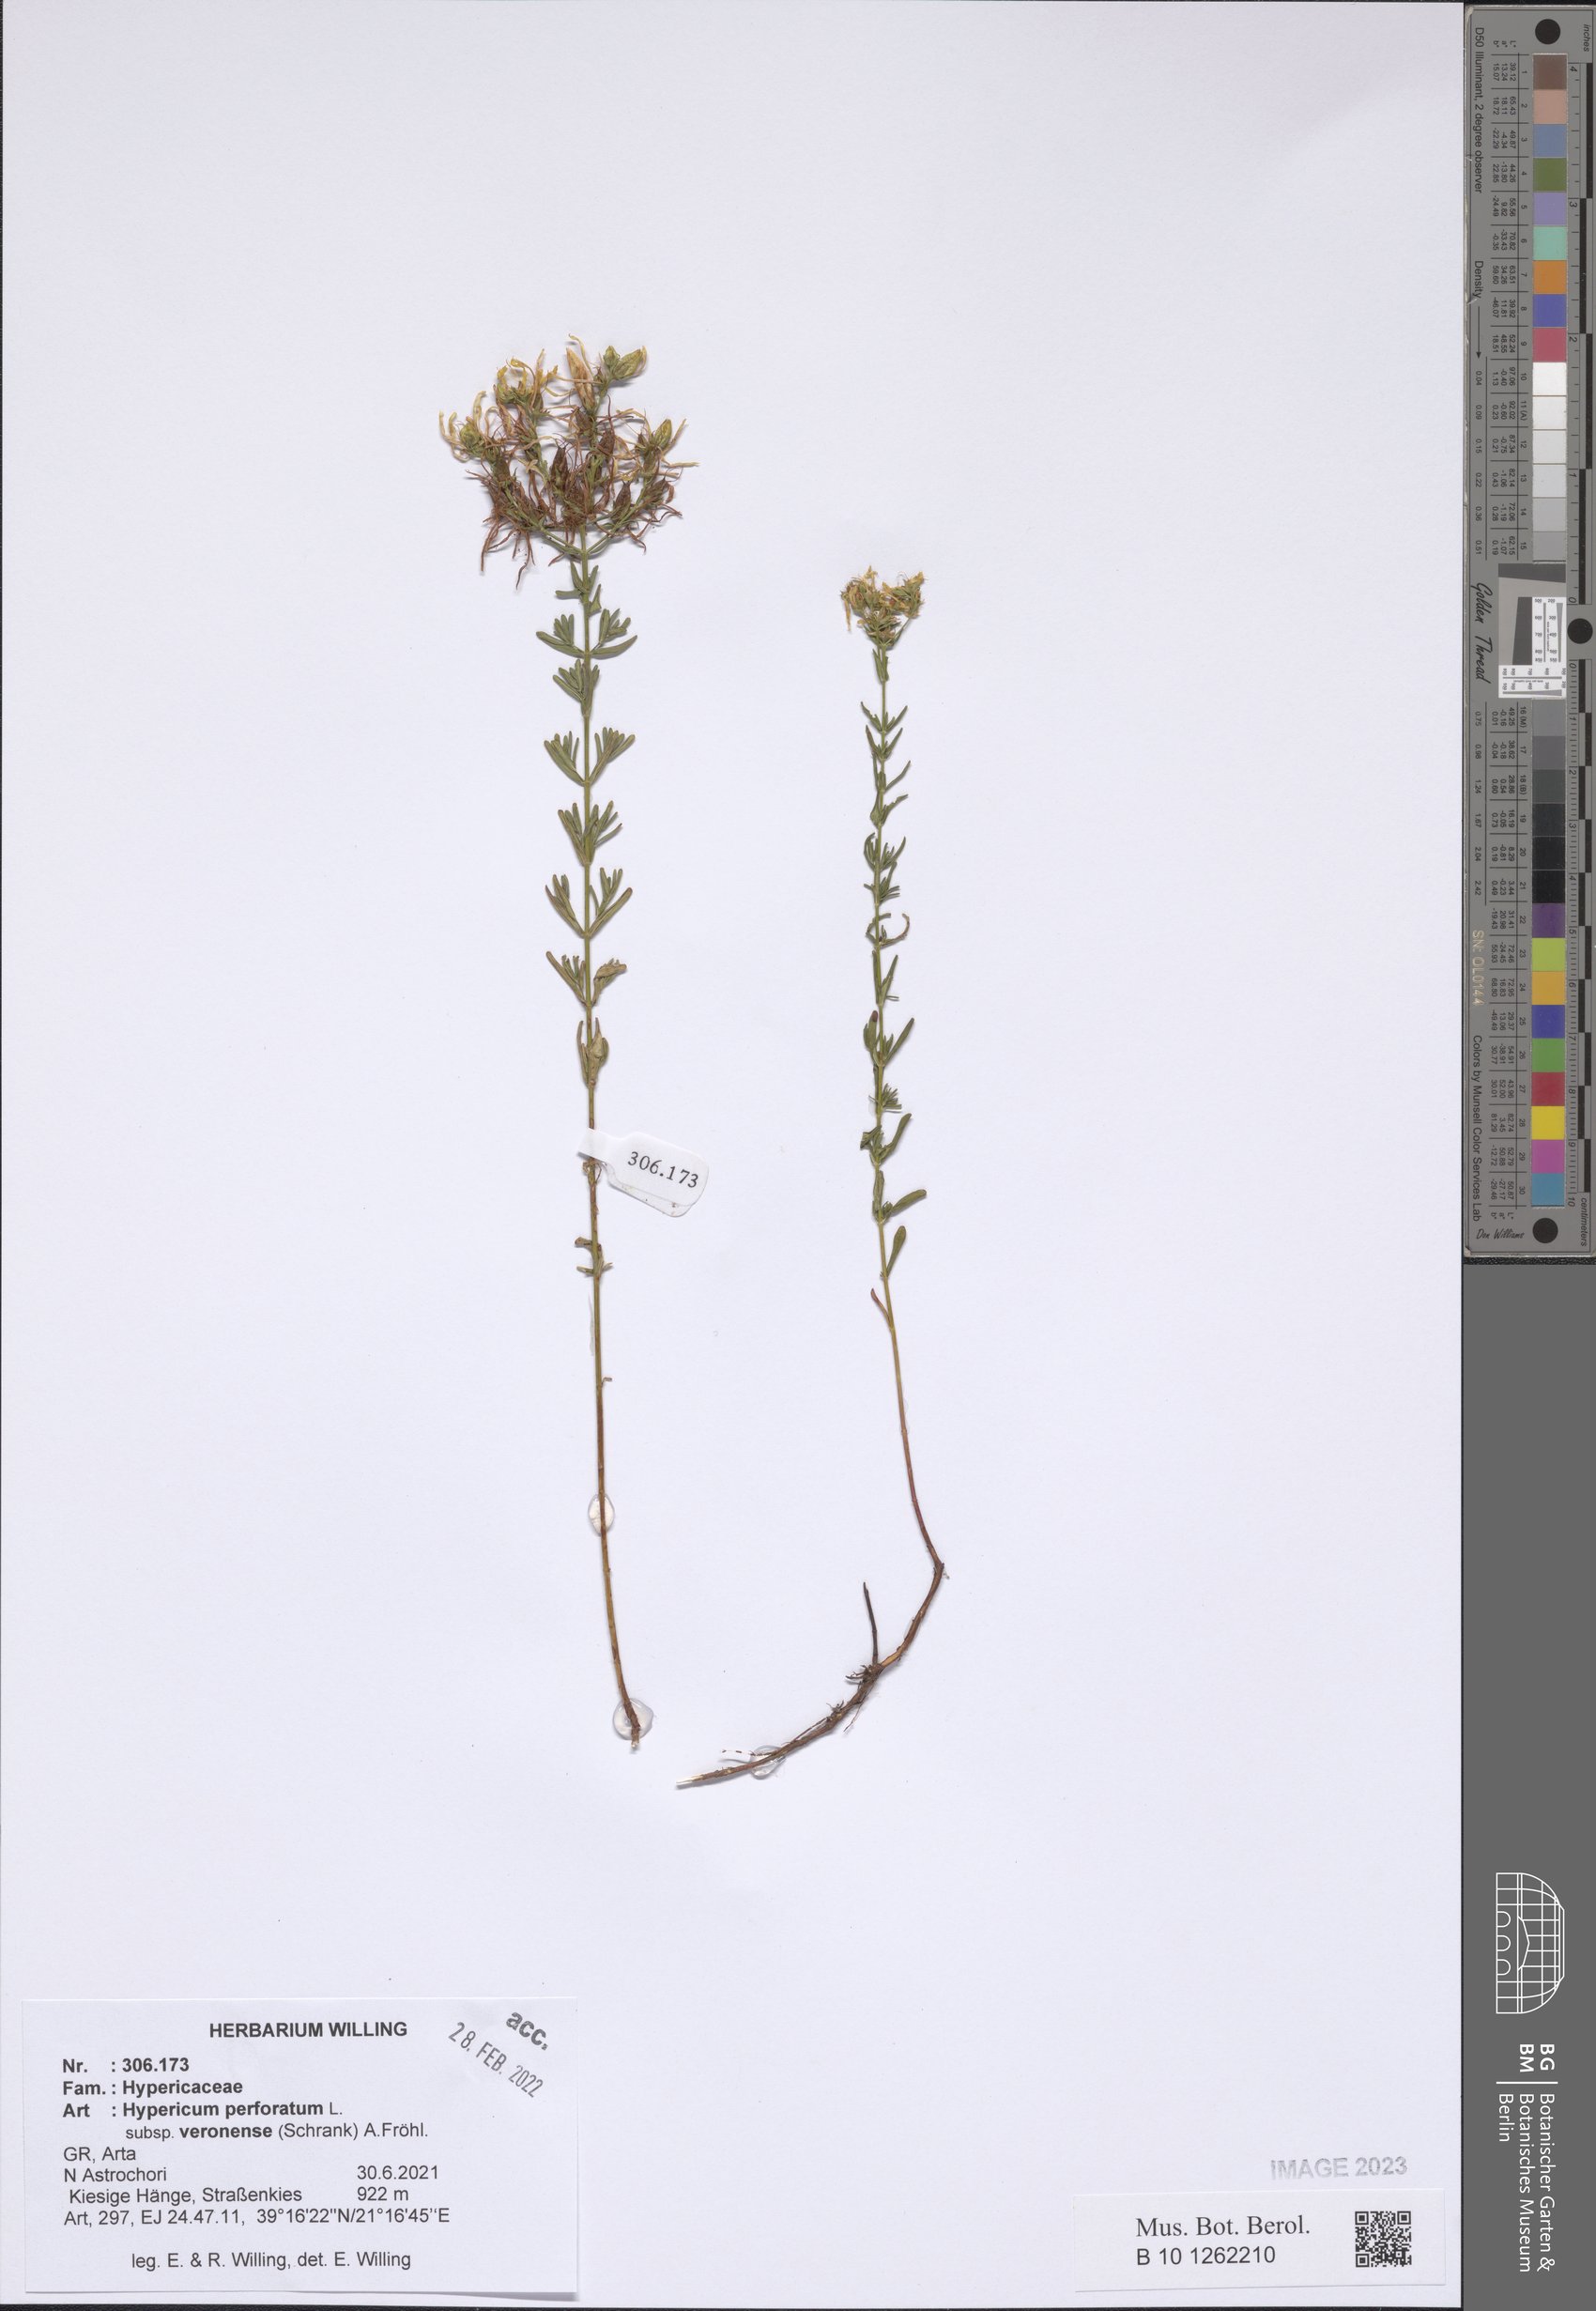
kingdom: Plantae
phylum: Tracheophyta
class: Magnoliopsida
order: Malpighiales
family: Hypericaceae
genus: Hypericum
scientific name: Hypericum veronense
